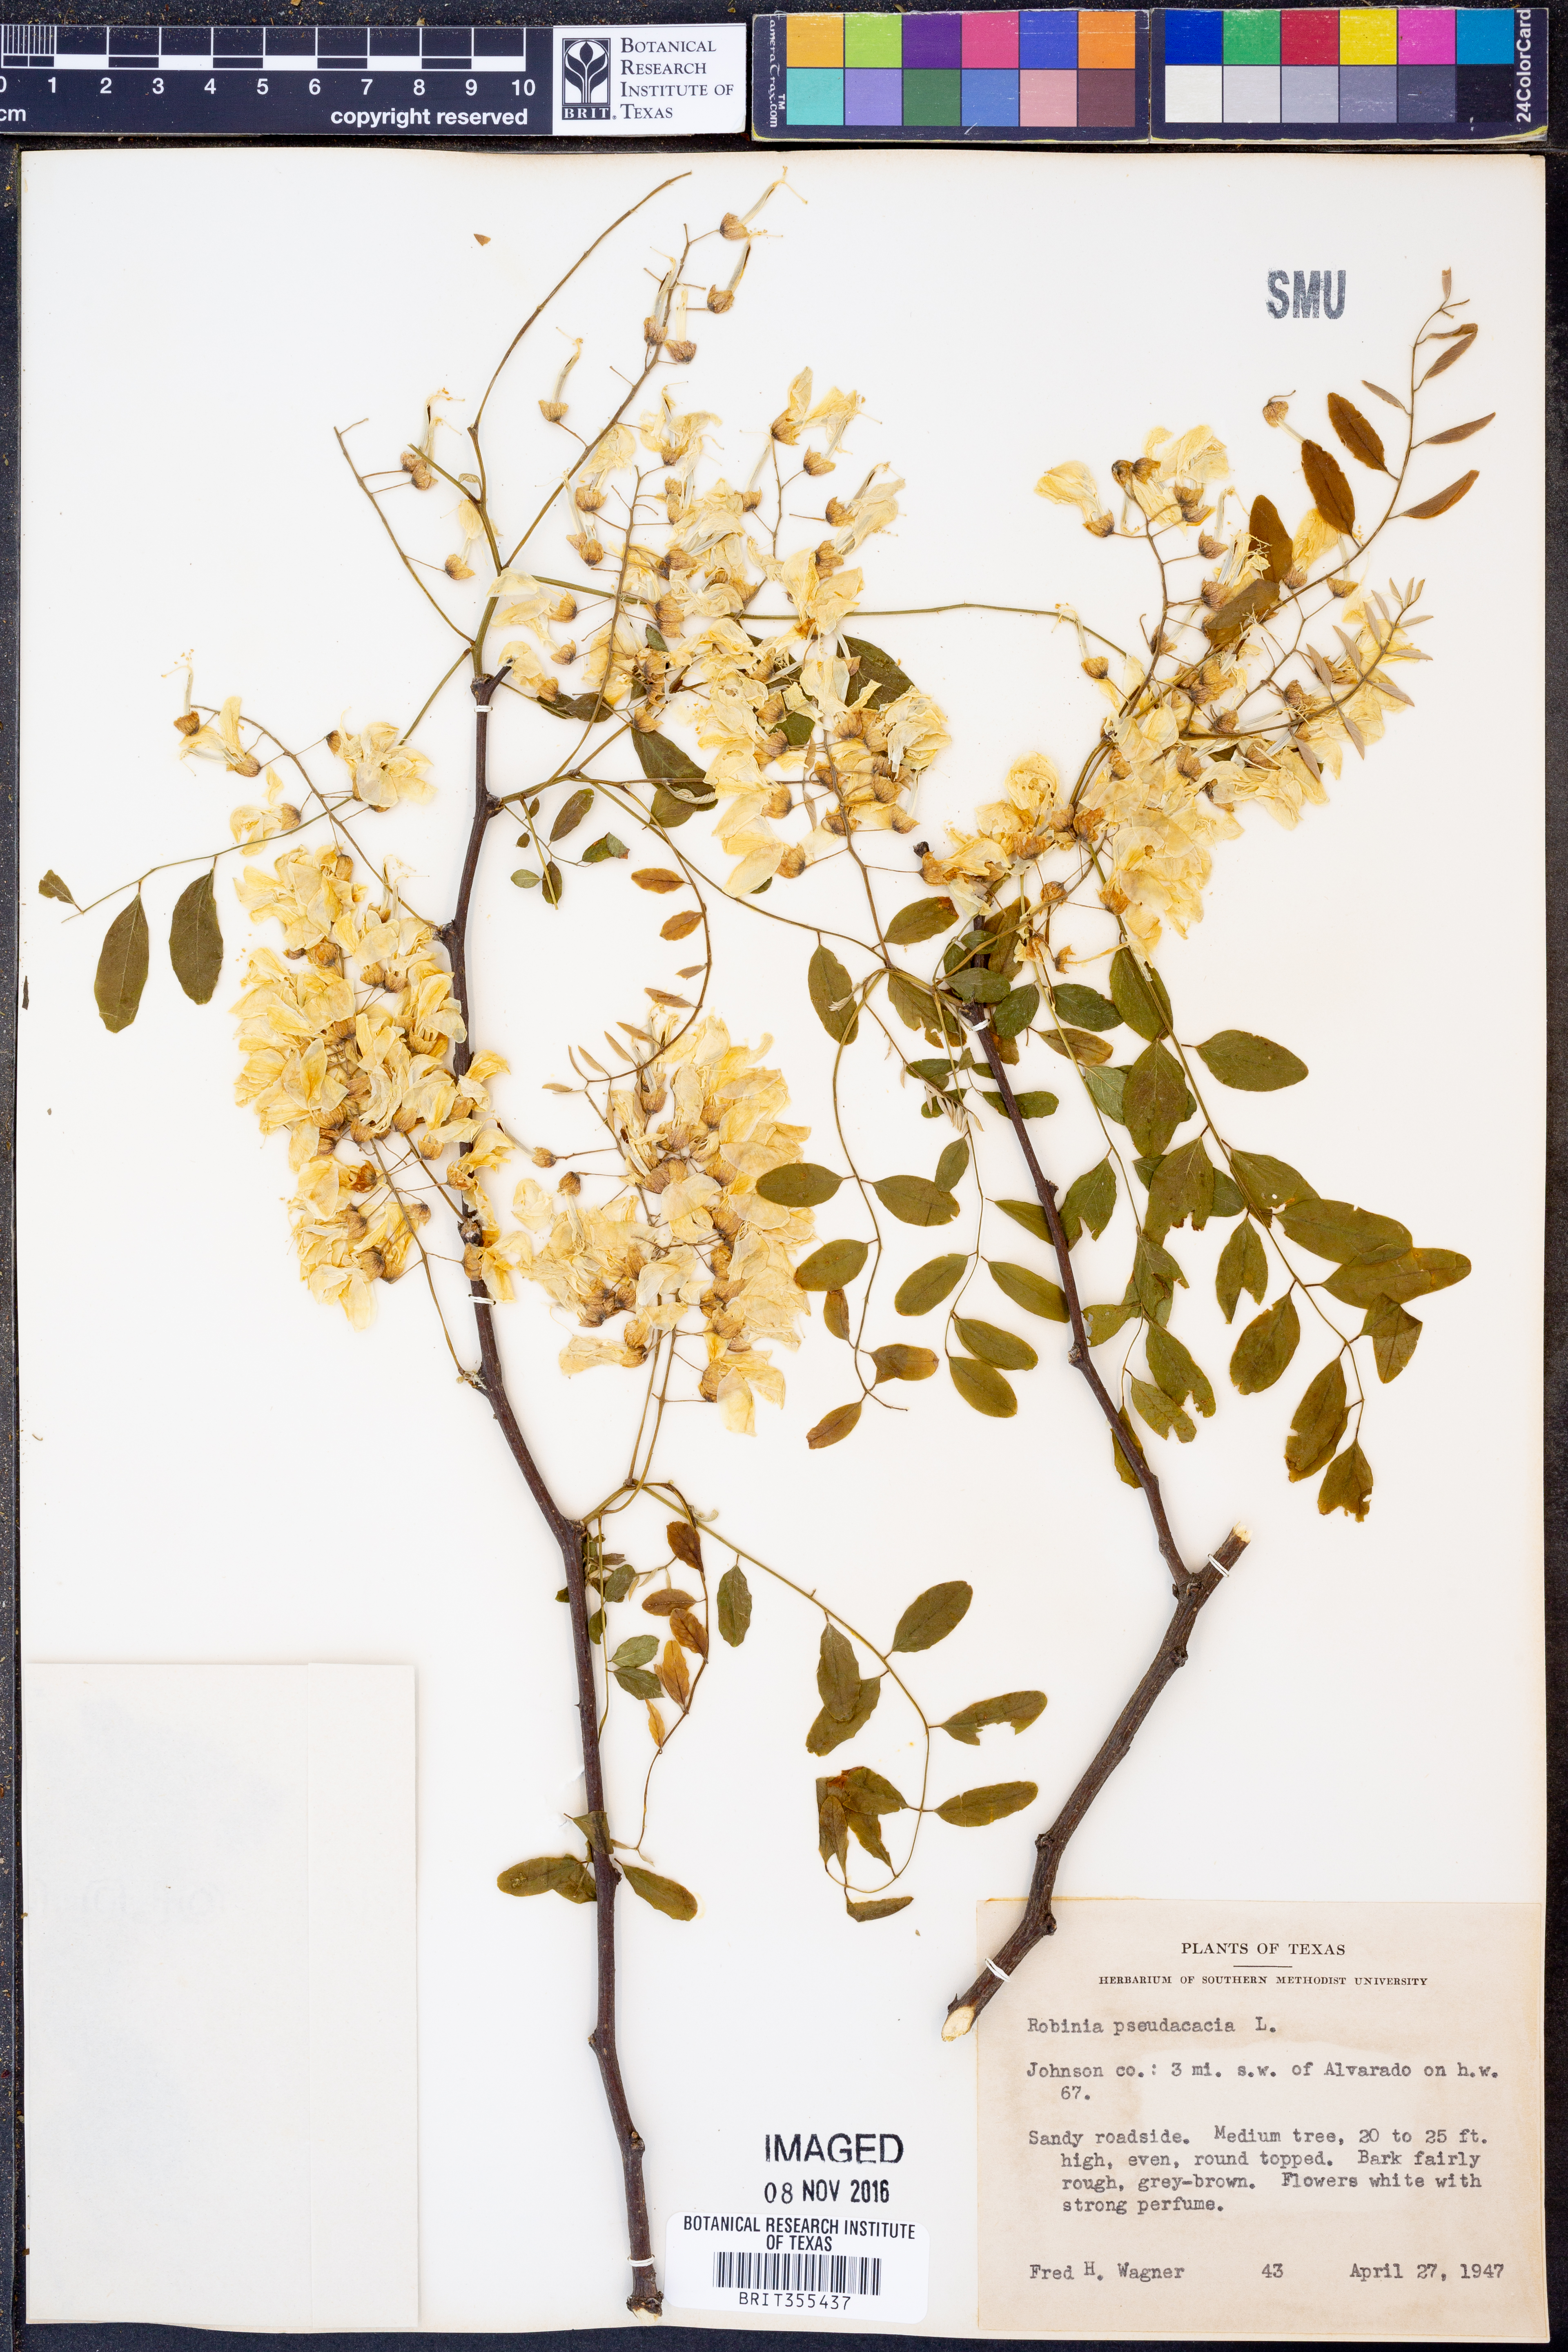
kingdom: Plantae
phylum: Tracheophyta
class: Magnoliopsida
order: Fabales
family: Fabaceae
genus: Robinia
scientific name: Robinia pseudoacacia
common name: Black locust
